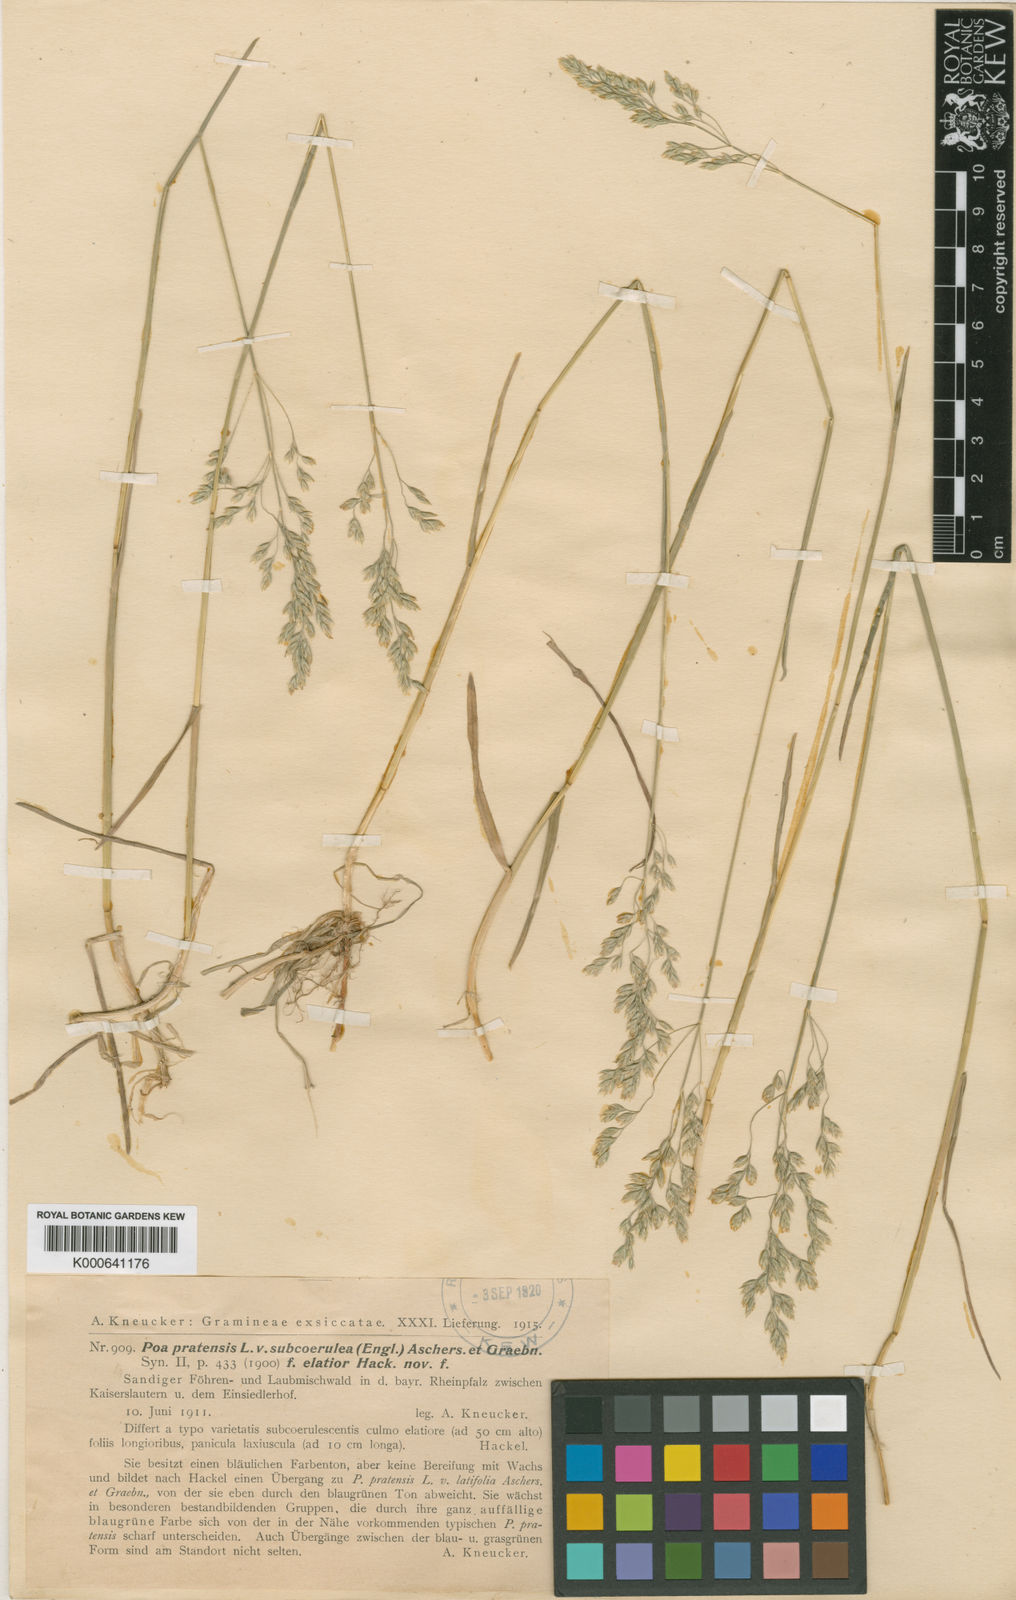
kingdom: Plantae
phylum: Tracheophyta
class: Liliopsida
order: Poales
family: Poaceae
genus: Poa
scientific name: Poa humilis
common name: Spreading meadow-grass
